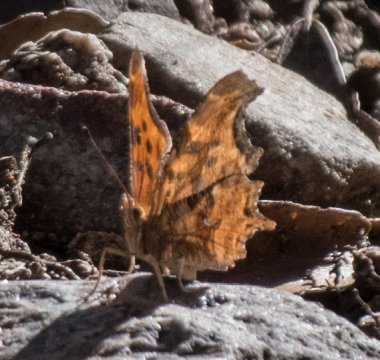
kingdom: Animalia
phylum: Arthropoda
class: Insecta
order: Lepidoptera
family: Nymphalidae
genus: Polygonia
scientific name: Polygonia satyrus
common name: Satyr Comma
